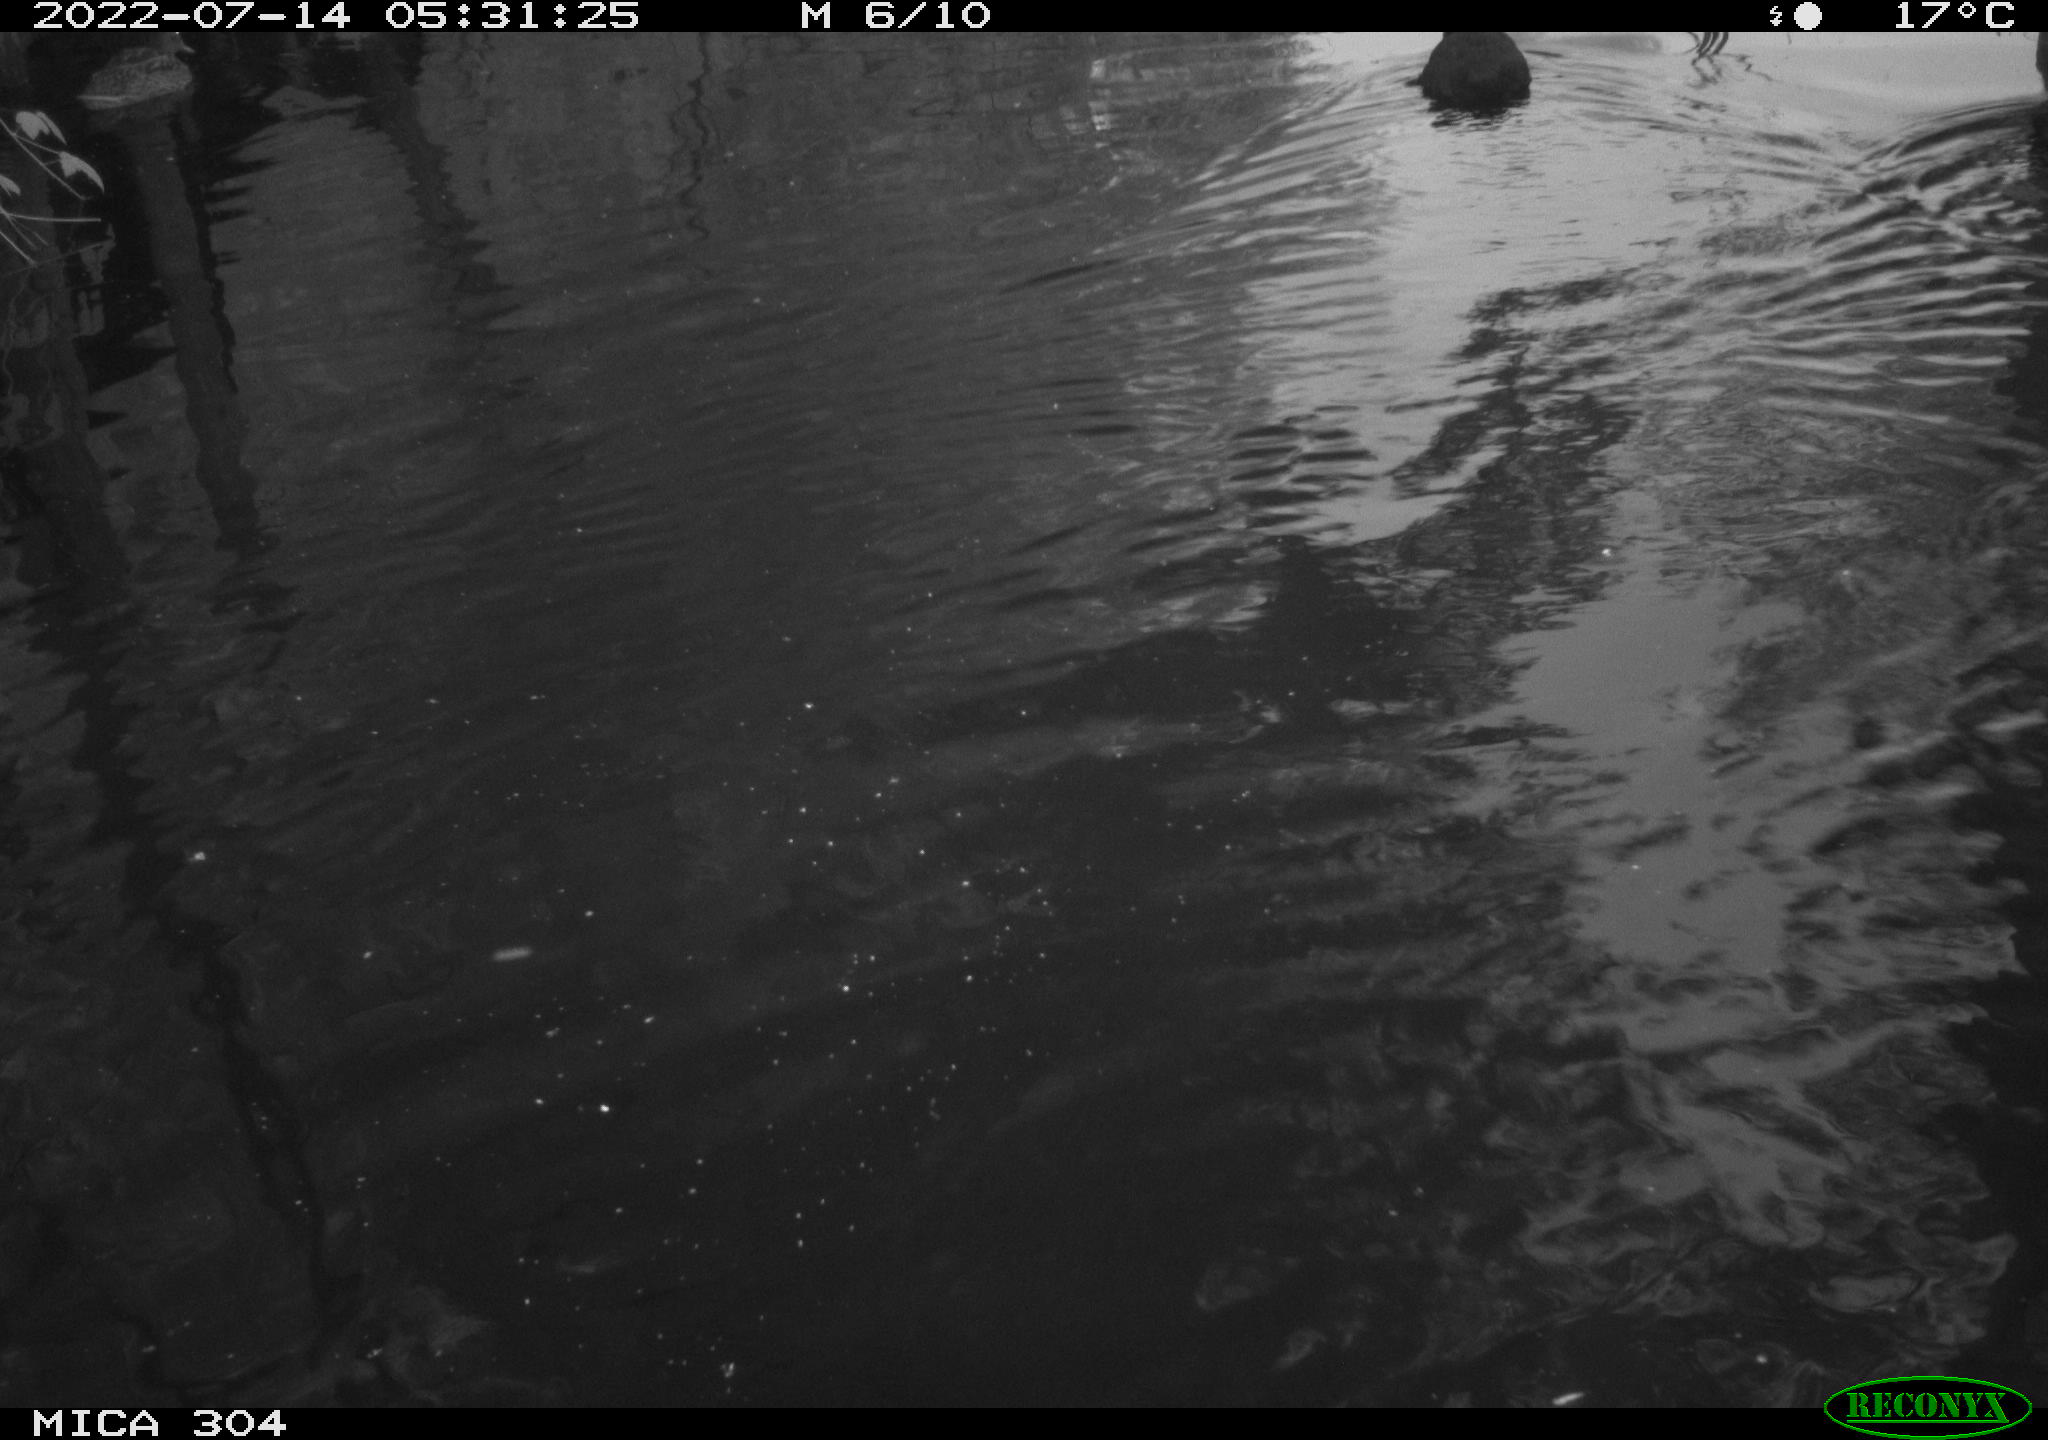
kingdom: Animalia
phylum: Chordata
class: Aves
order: Gruiformes
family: Rallidae
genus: Fulica
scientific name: Fulica atra
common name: Eurasian coot
